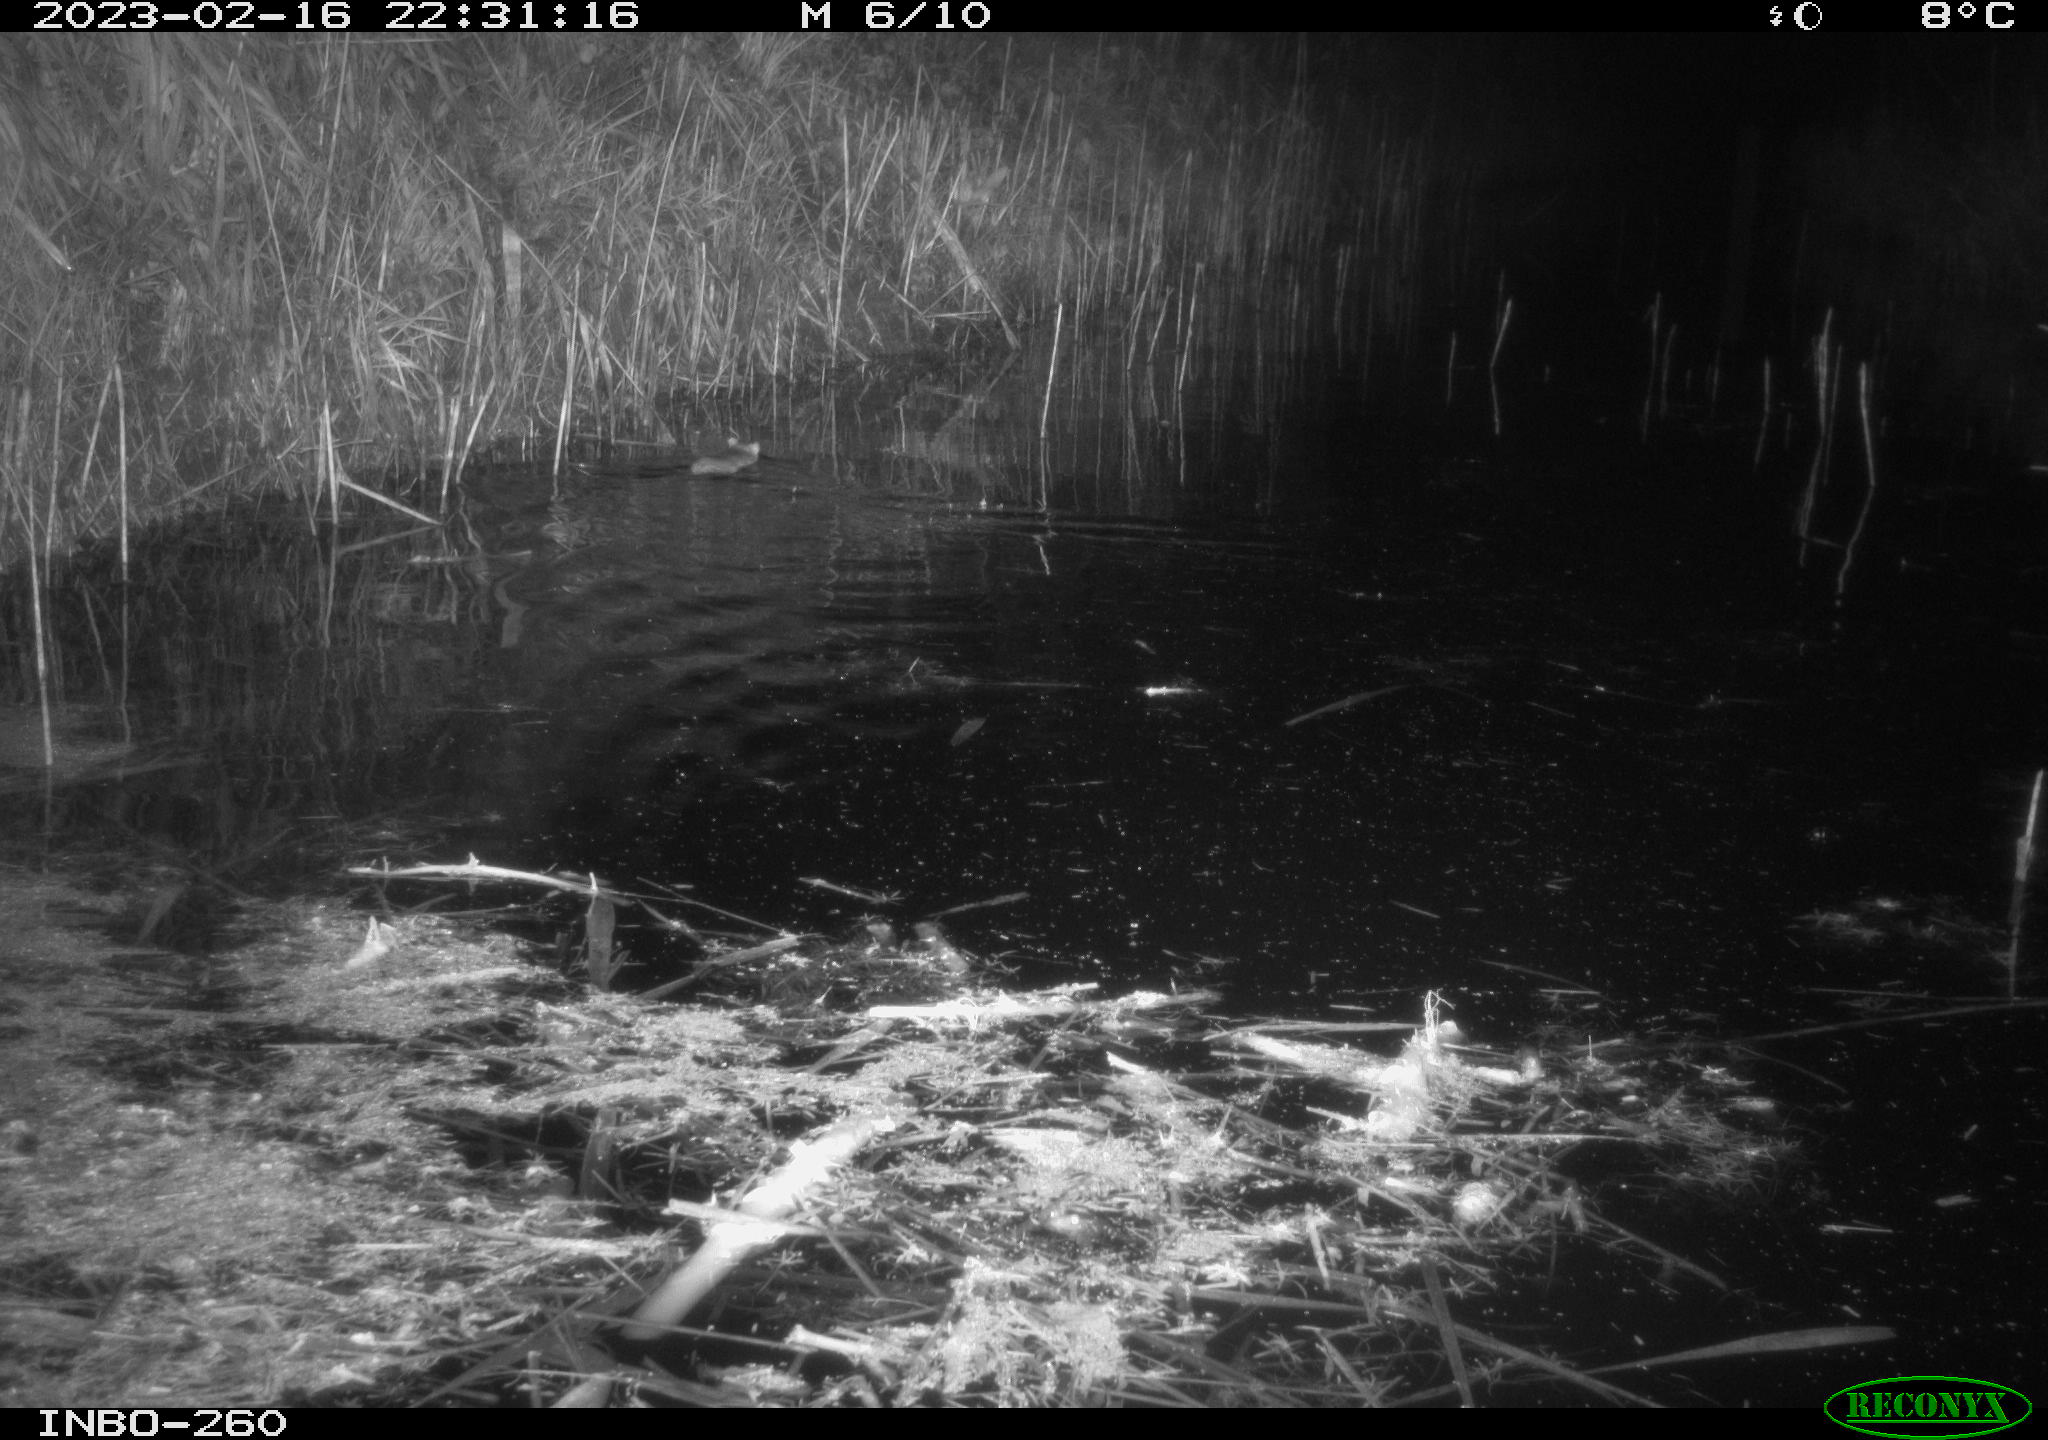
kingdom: Animalia
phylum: Chordata
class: Mammalia
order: Rodentia
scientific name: Rodentia
